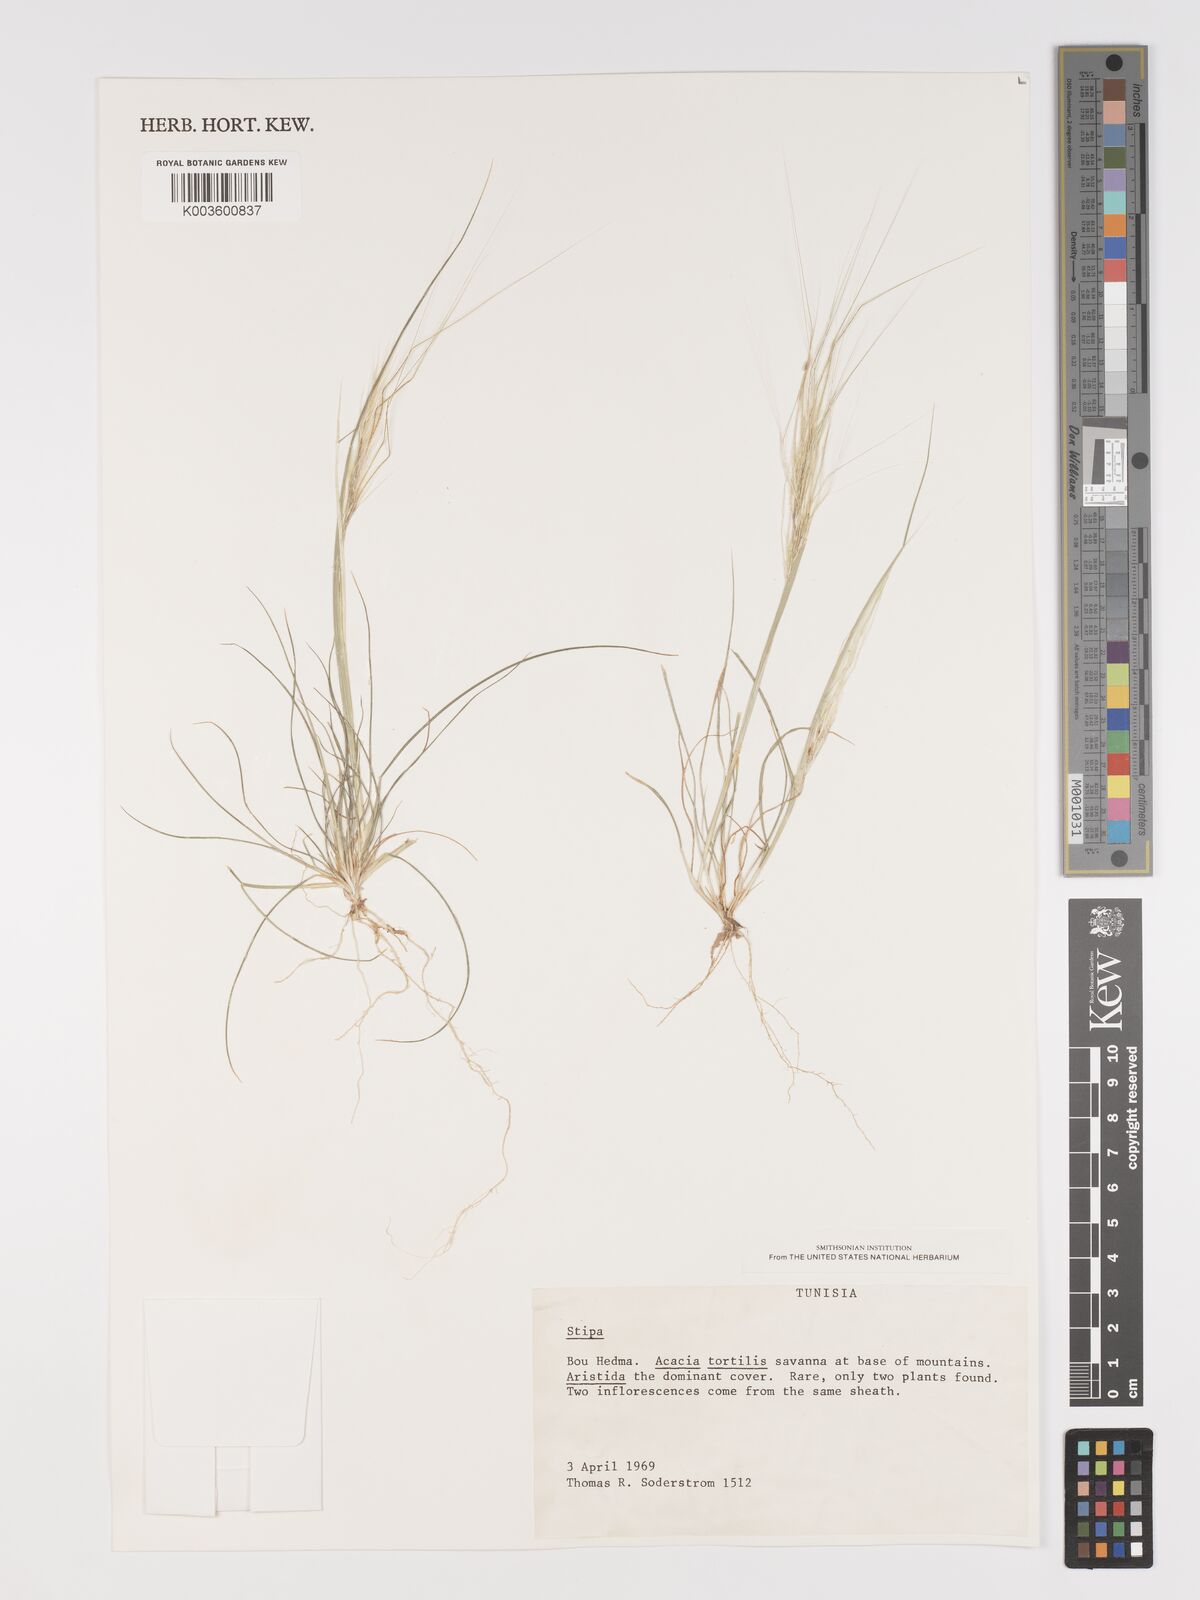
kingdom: Plantae
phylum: Tracheophyta
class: Liliopsida
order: Poales
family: Poaceae
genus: Stipellula
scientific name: Stipellula capensis
